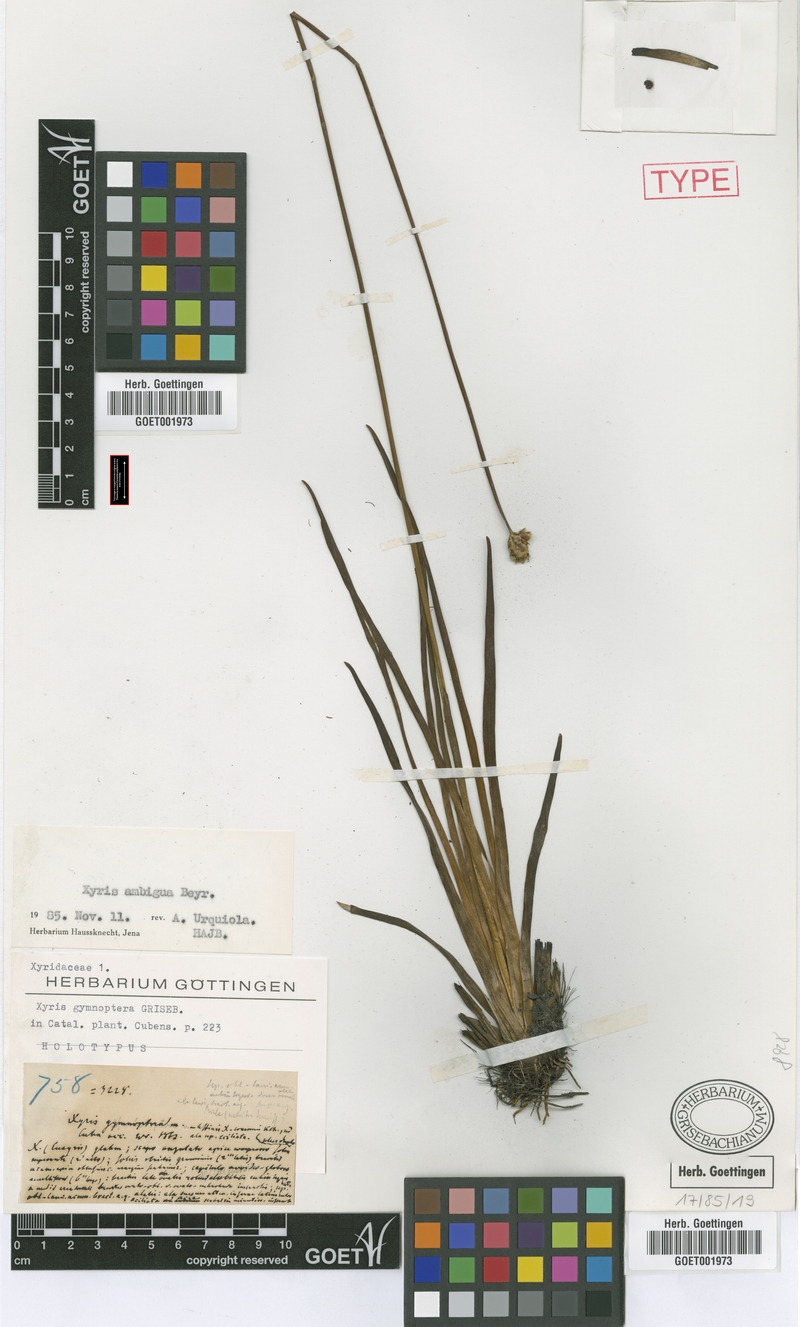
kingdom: Plantae
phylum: Tracheophyta
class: Liliopsida
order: Poales
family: Xyridaceae
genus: Xyris
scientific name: Xyris ambigua
